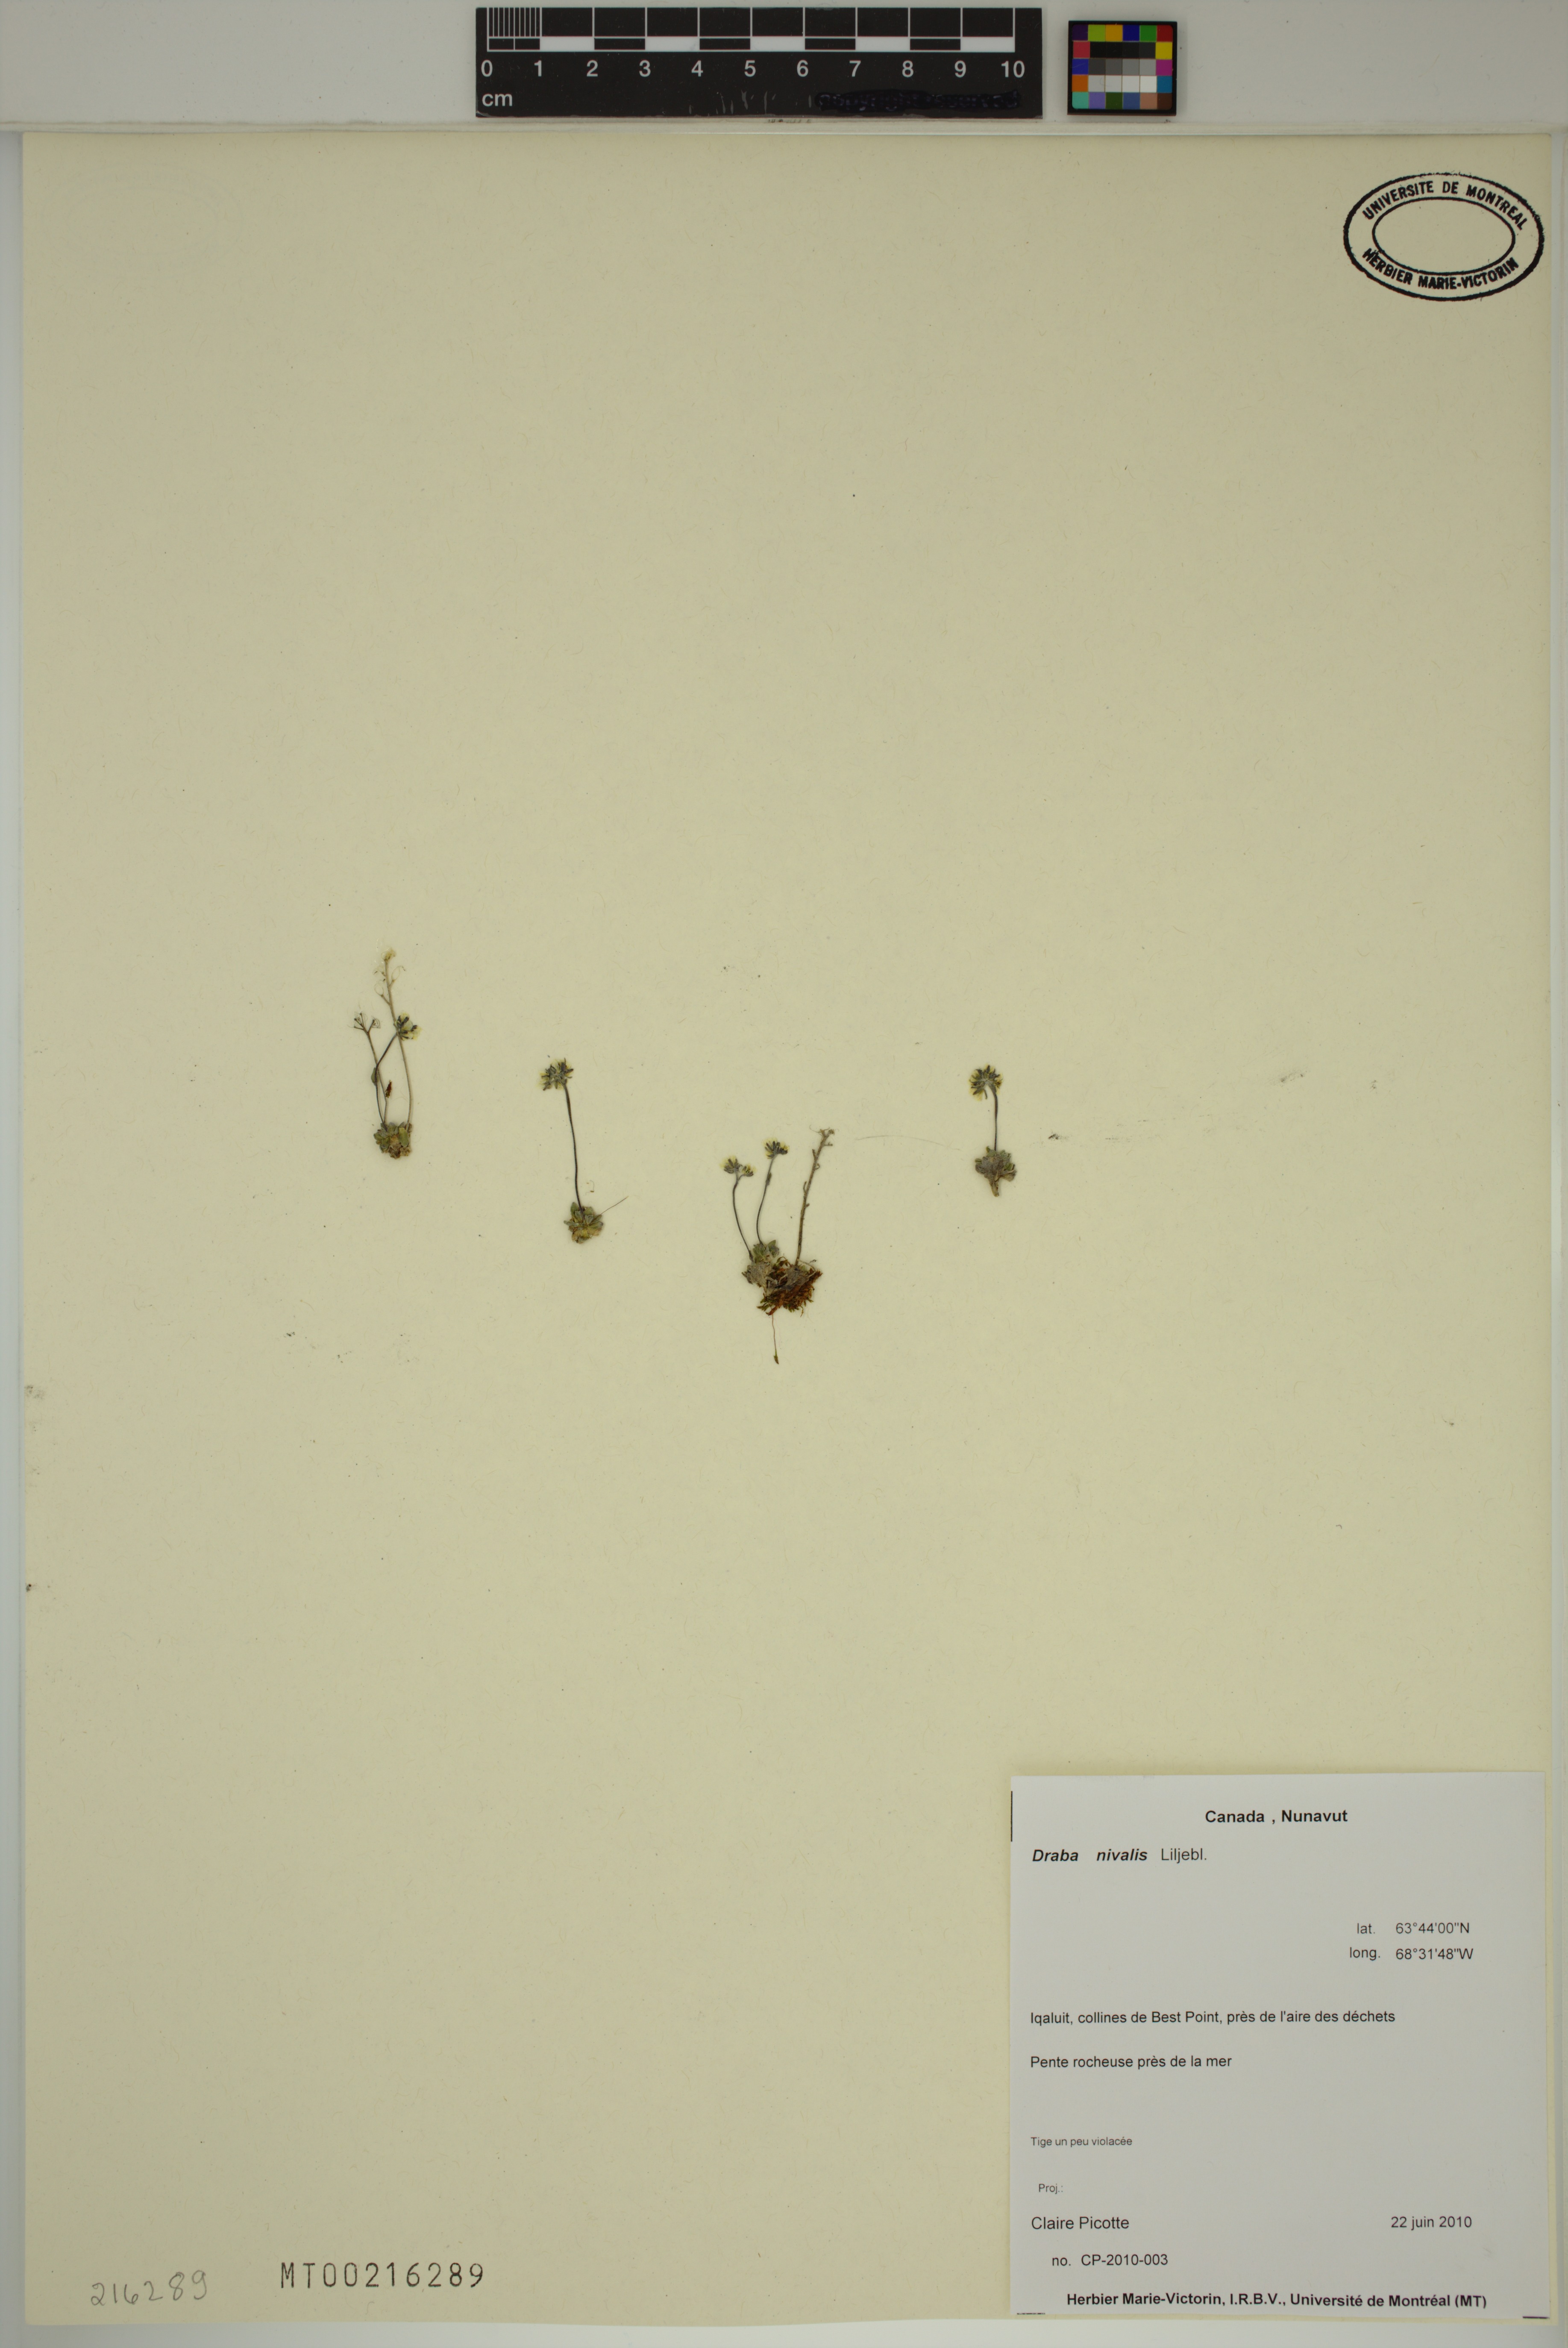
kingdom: Plantae
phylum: Tracheophyta
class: Magnoliopsida
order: Brassicales
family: Brassicaceae
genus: Draba
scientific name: Draba nivalis
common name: Snow draba
